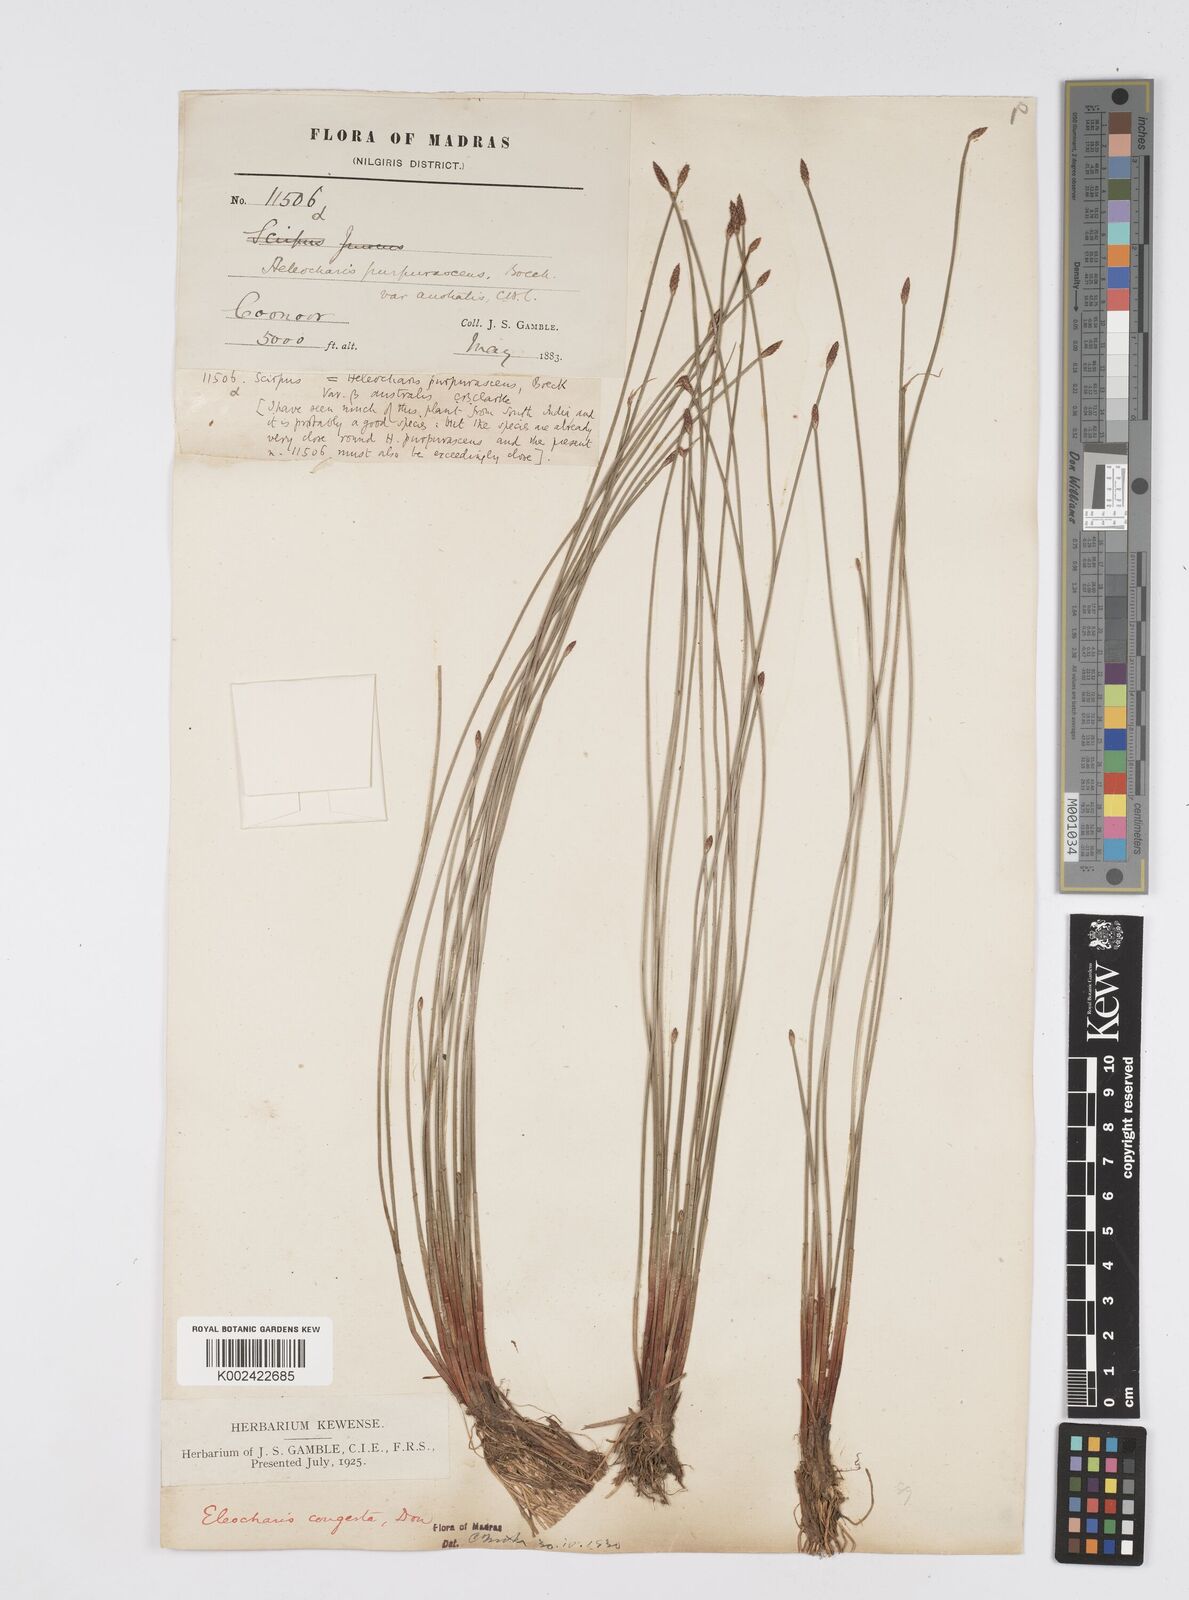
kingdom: Plantae
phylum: Tracheophyta
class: Liliopsida
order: Poales
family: Cyperaceae
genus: Eleocharis
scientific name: Eleocharis congesta
